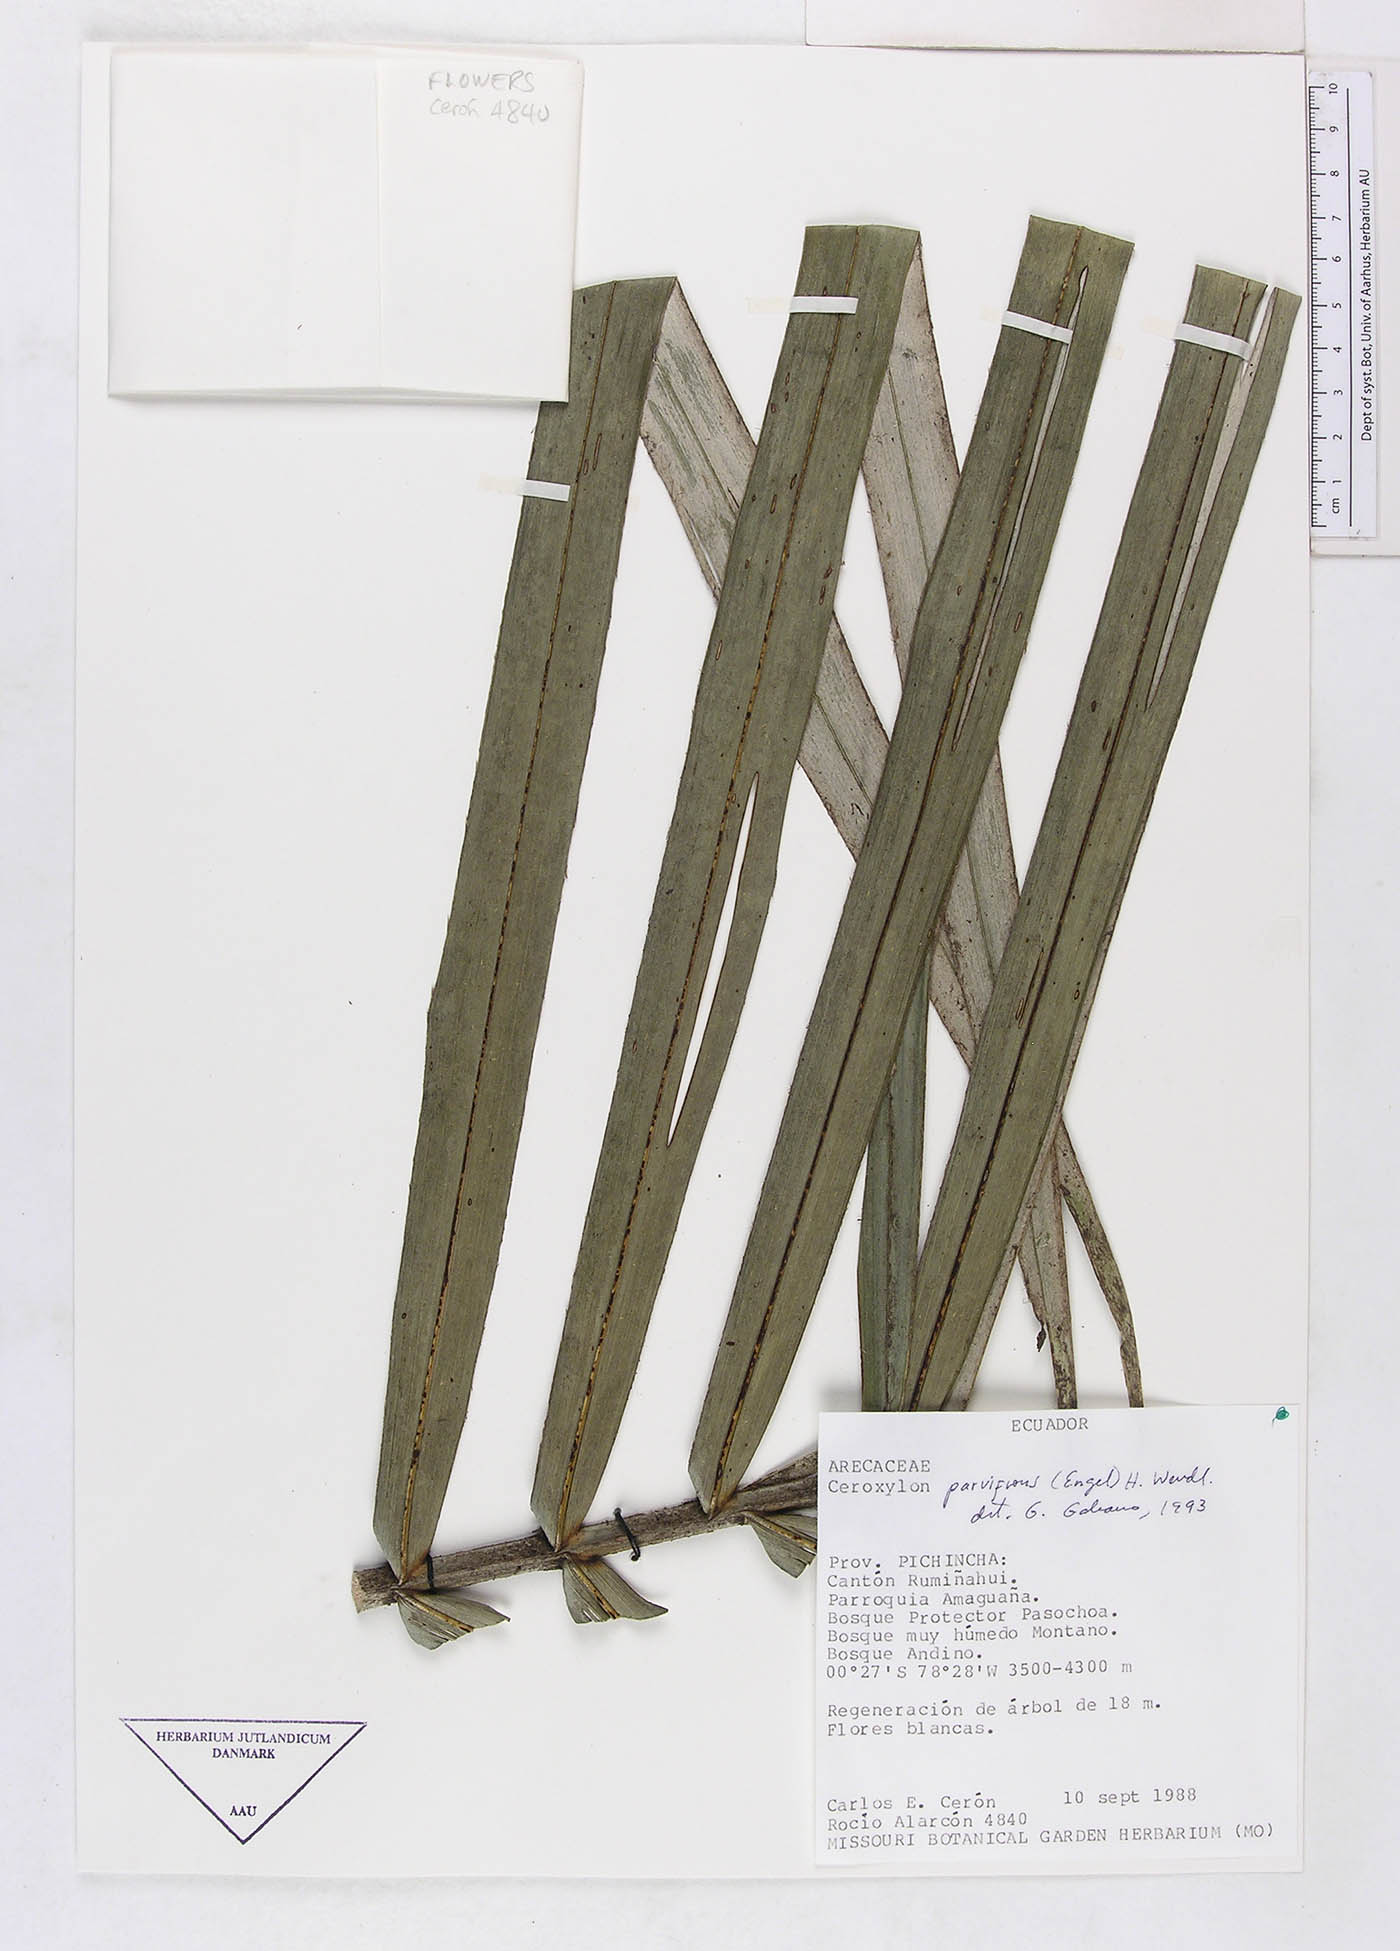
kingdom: Plantae
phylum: Tracheophyta
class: Liliopsida
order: Arecales
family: Arecaceae
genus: Ceroxylon
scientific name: Ceroxylon parvifrons
